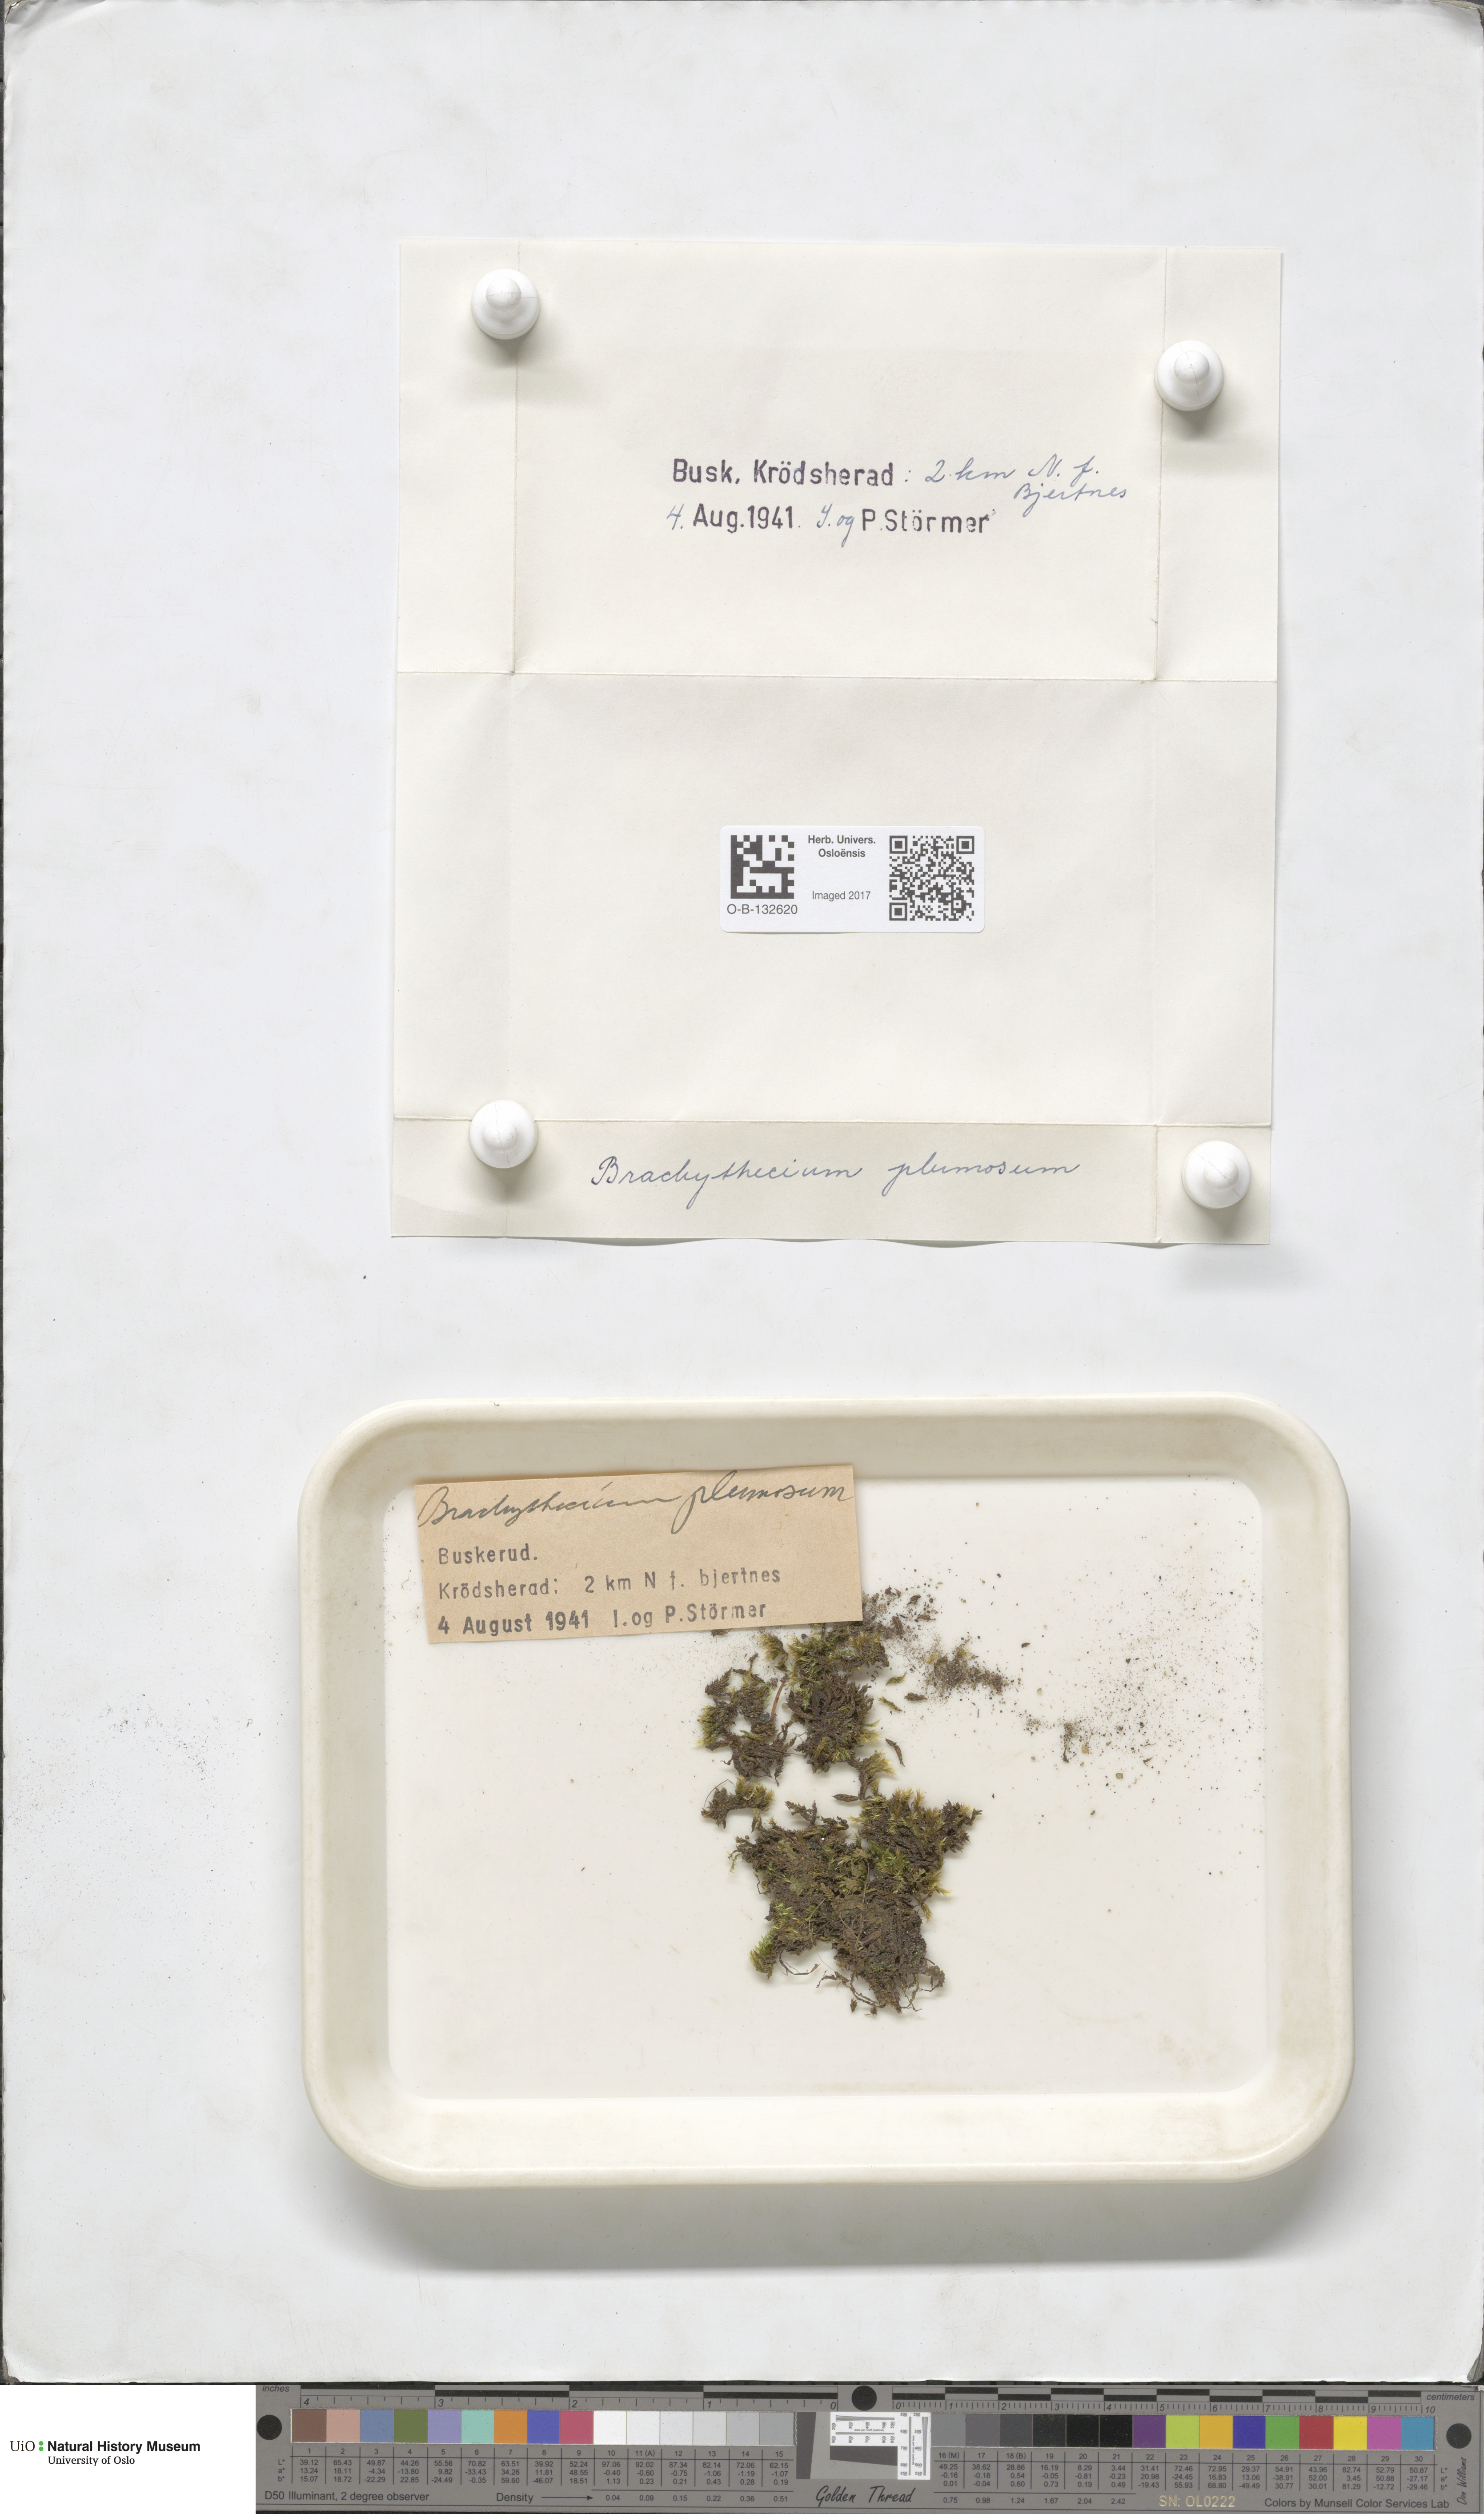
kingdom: Plantae
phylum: Bryophyta
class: Bryopsida
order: Hypnales
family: Brachytheciaceae
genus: Sciuro-hypnum
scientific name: Sciuro-hypnum plumosum
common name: Rusty feather-moss
